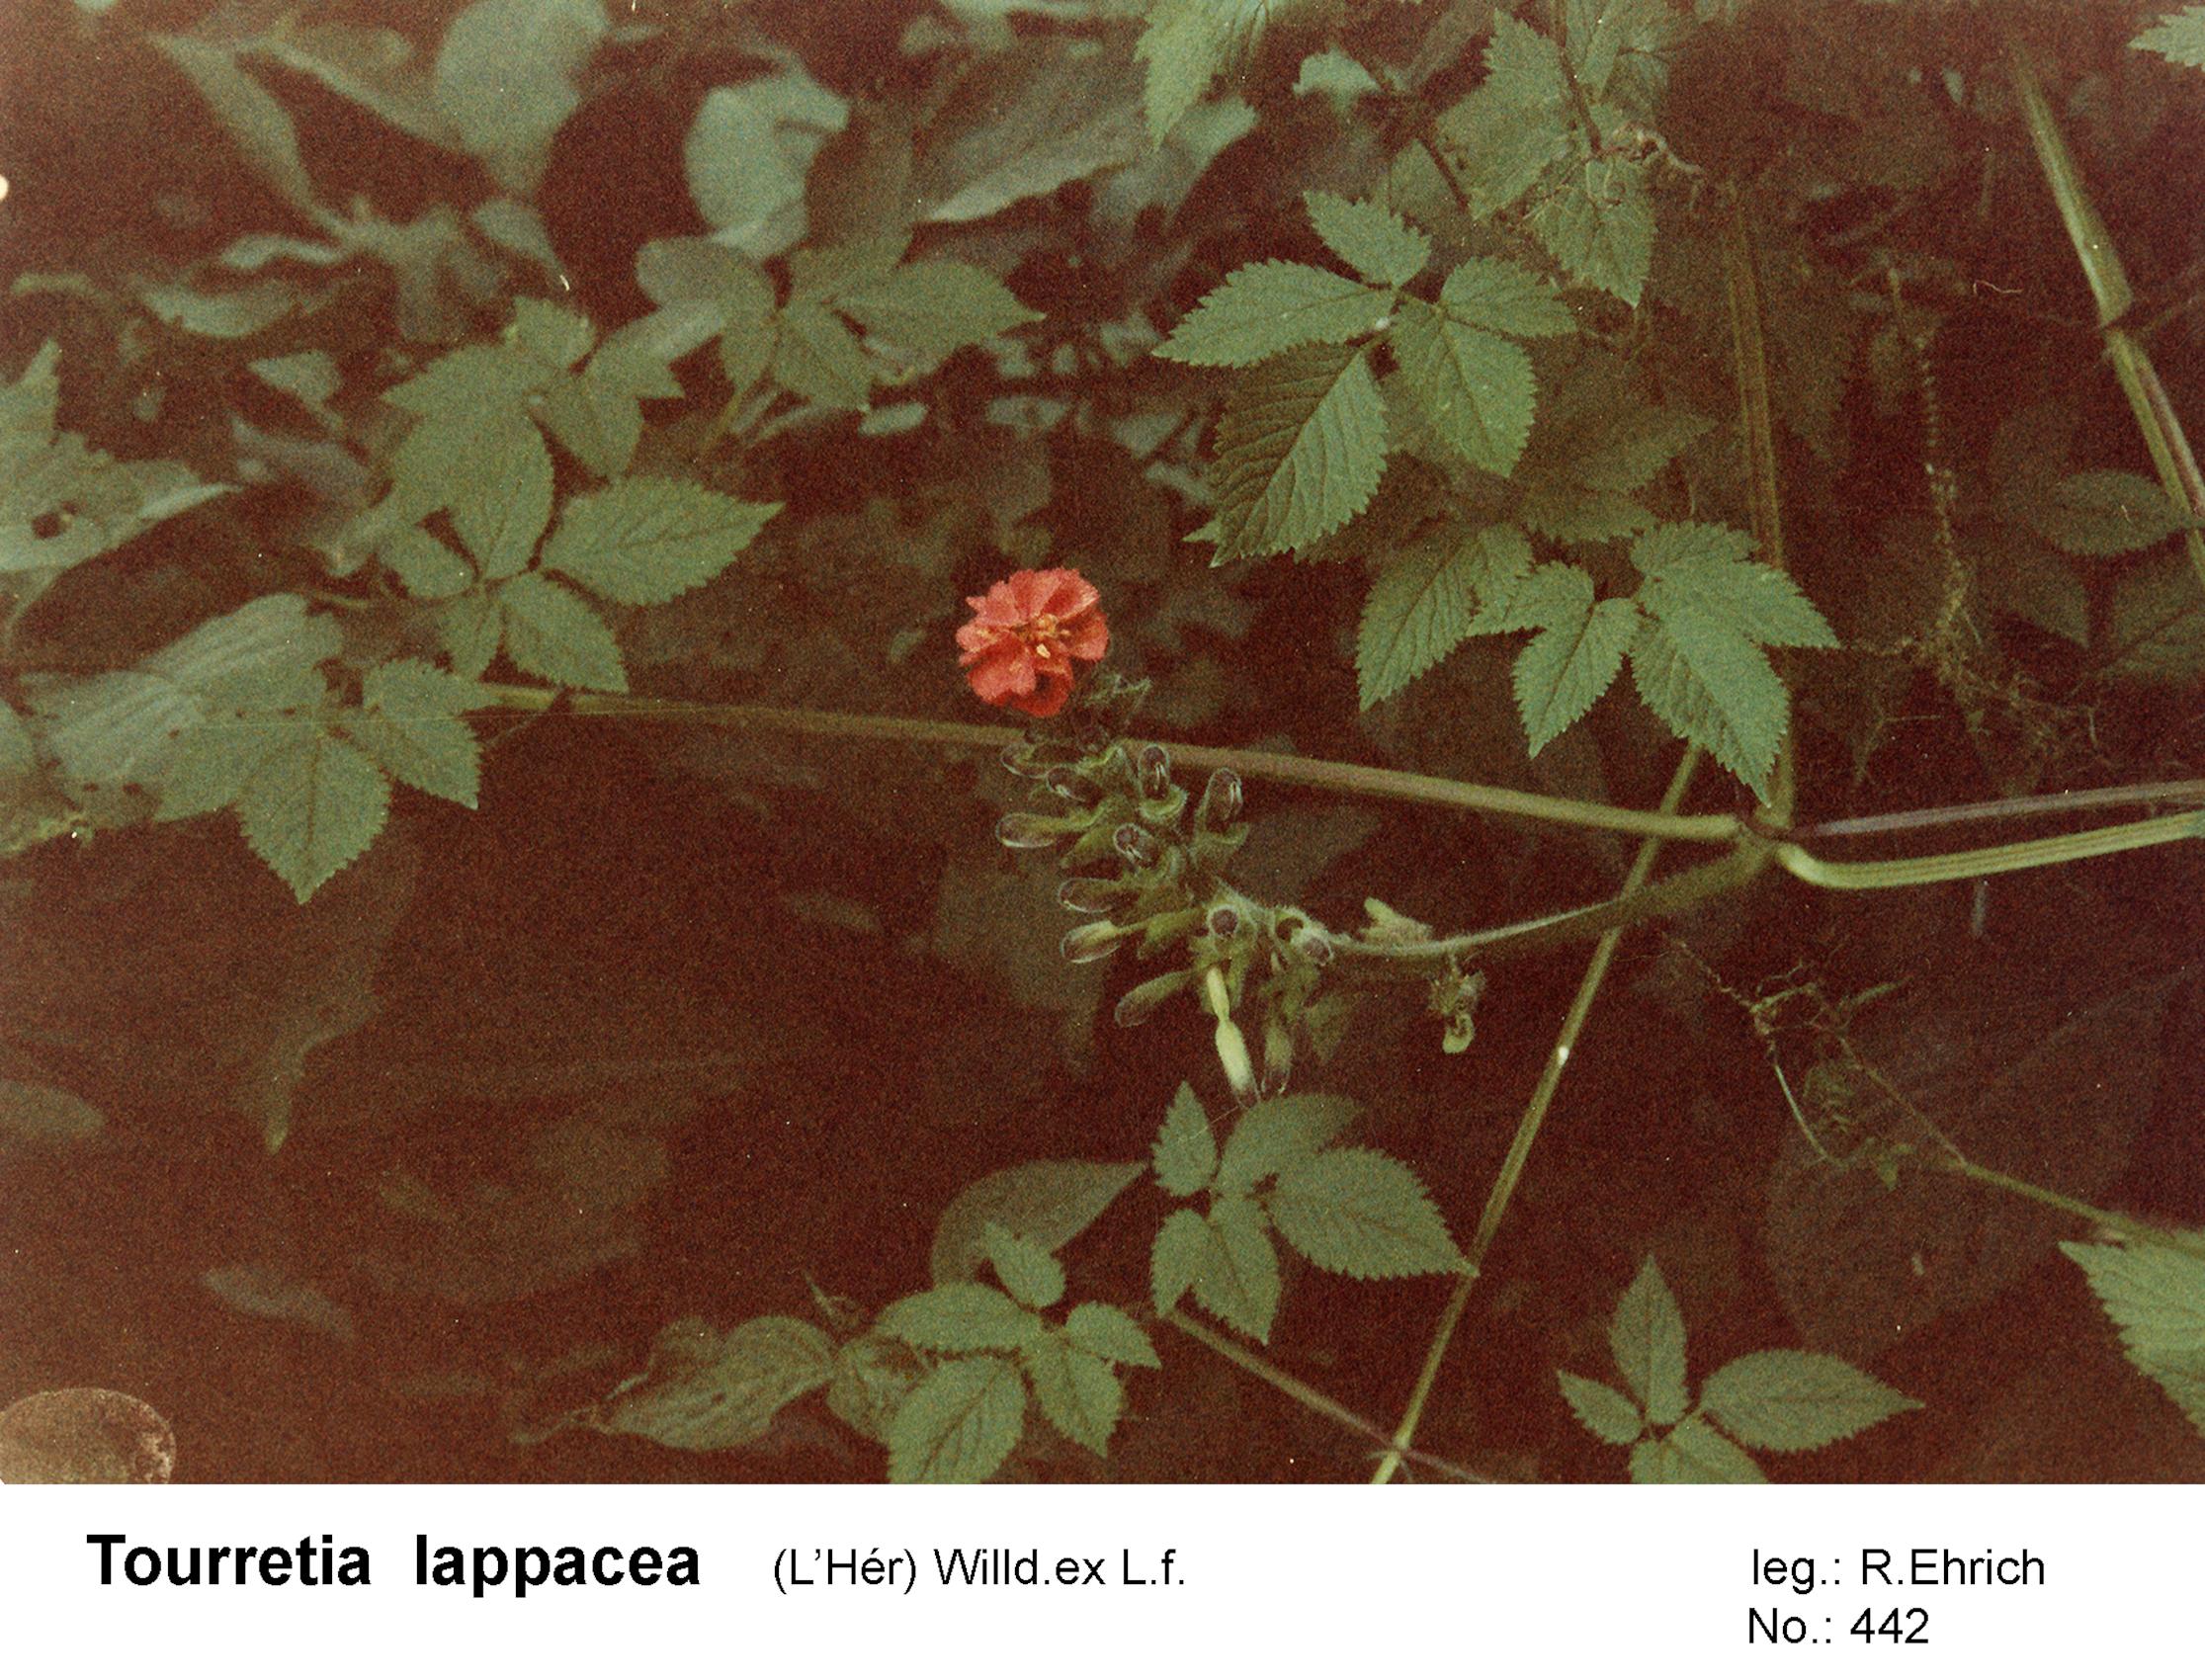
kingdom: Plantae
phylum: Tracheophyta
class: Magnoliopsida
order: Lamiales
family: Bignoniaceae
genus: Tourrettia
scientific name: Tourrettia lappacea
